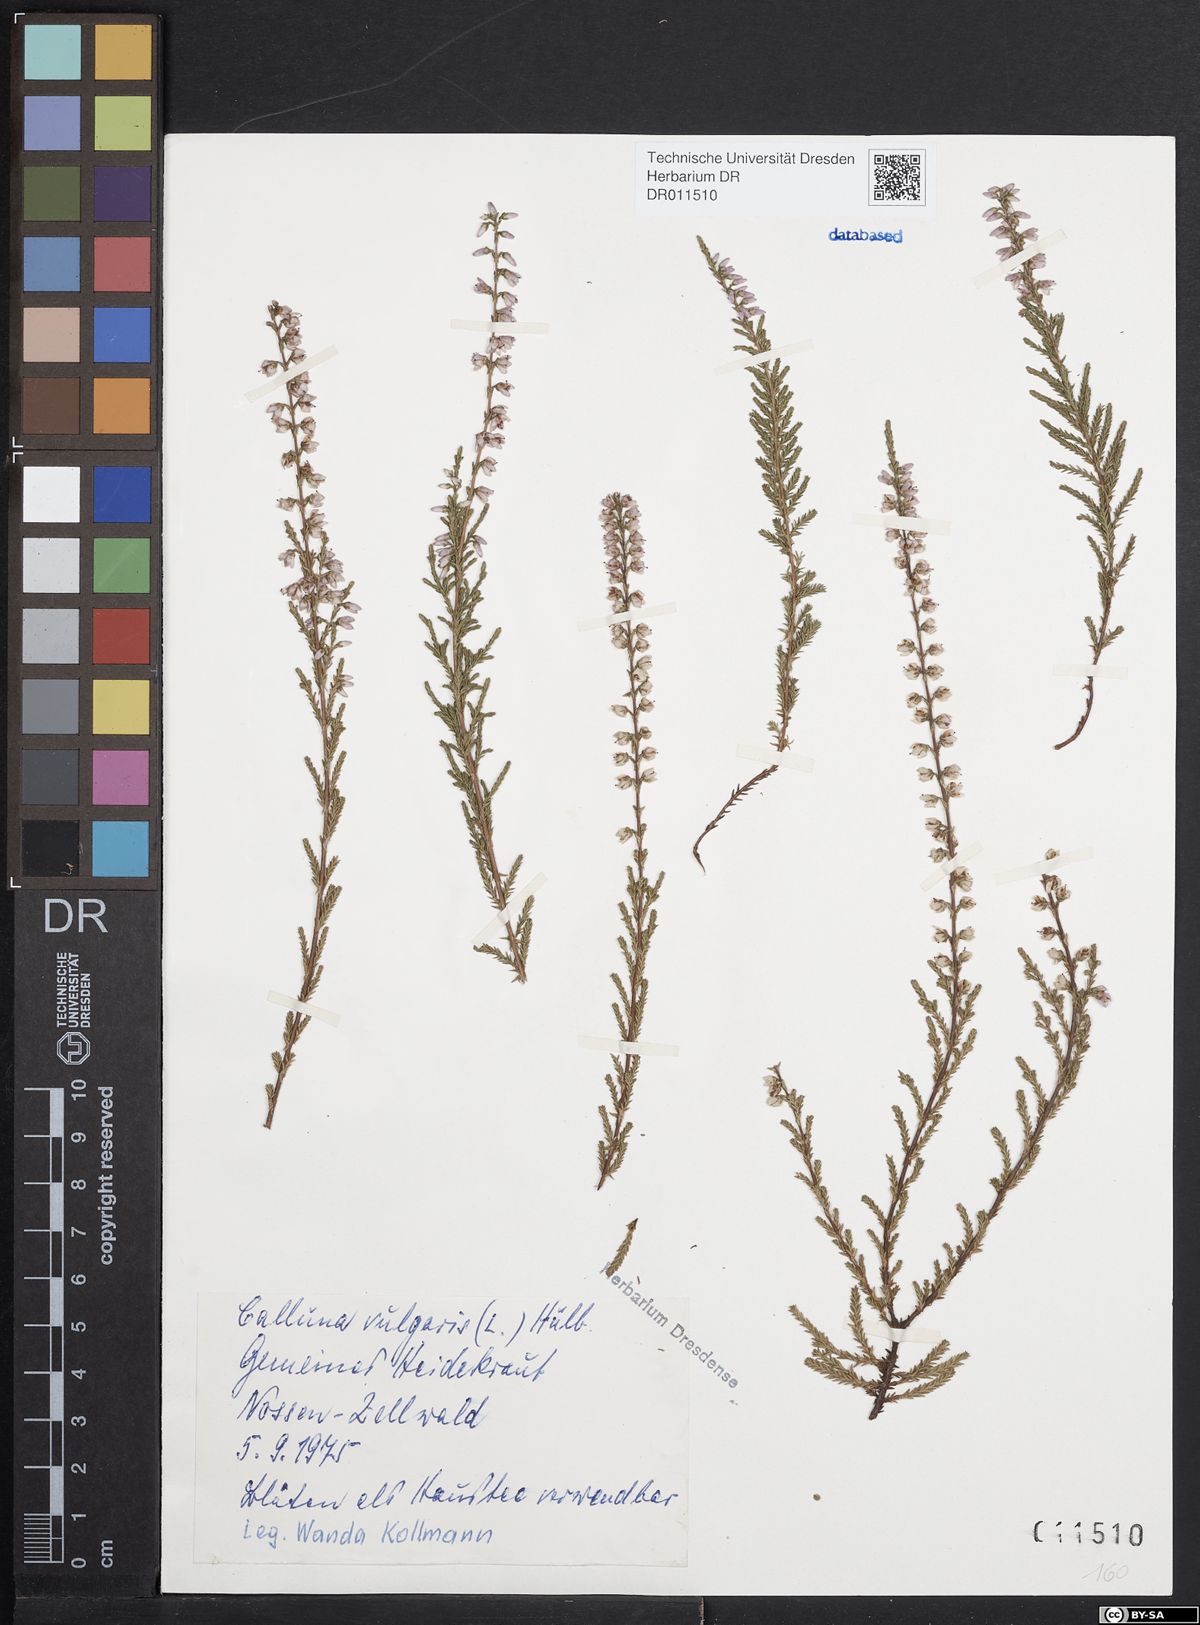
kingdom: Plantae
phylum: Tracheophyta
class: Magnoliopsida
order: Ericales
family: Ericaceae
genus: Calluna
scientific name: Calluna vulgaris
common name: Heather
